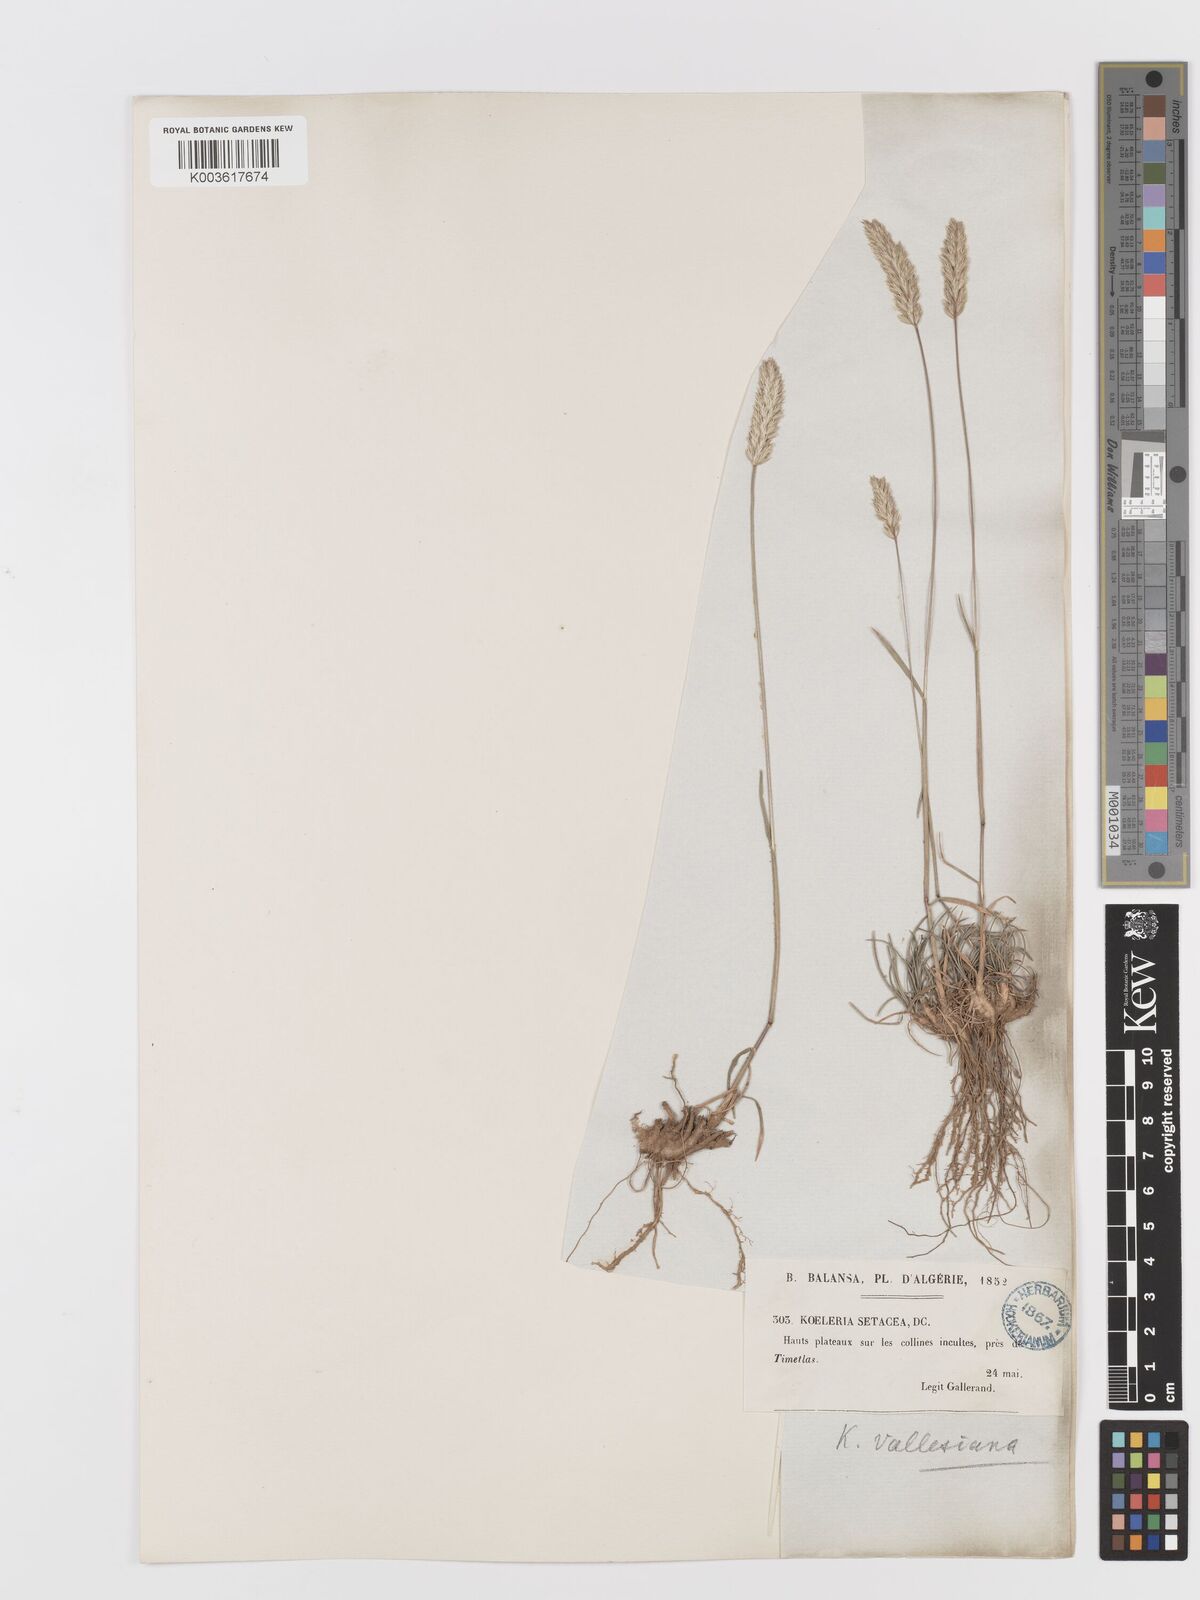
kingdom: Plantae
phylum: Tracheophyta
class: Liliopsida
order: Poales
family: Poaceae
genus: Koeleria
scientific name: Koeleria vallesiana
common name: Somerset hair-grass
